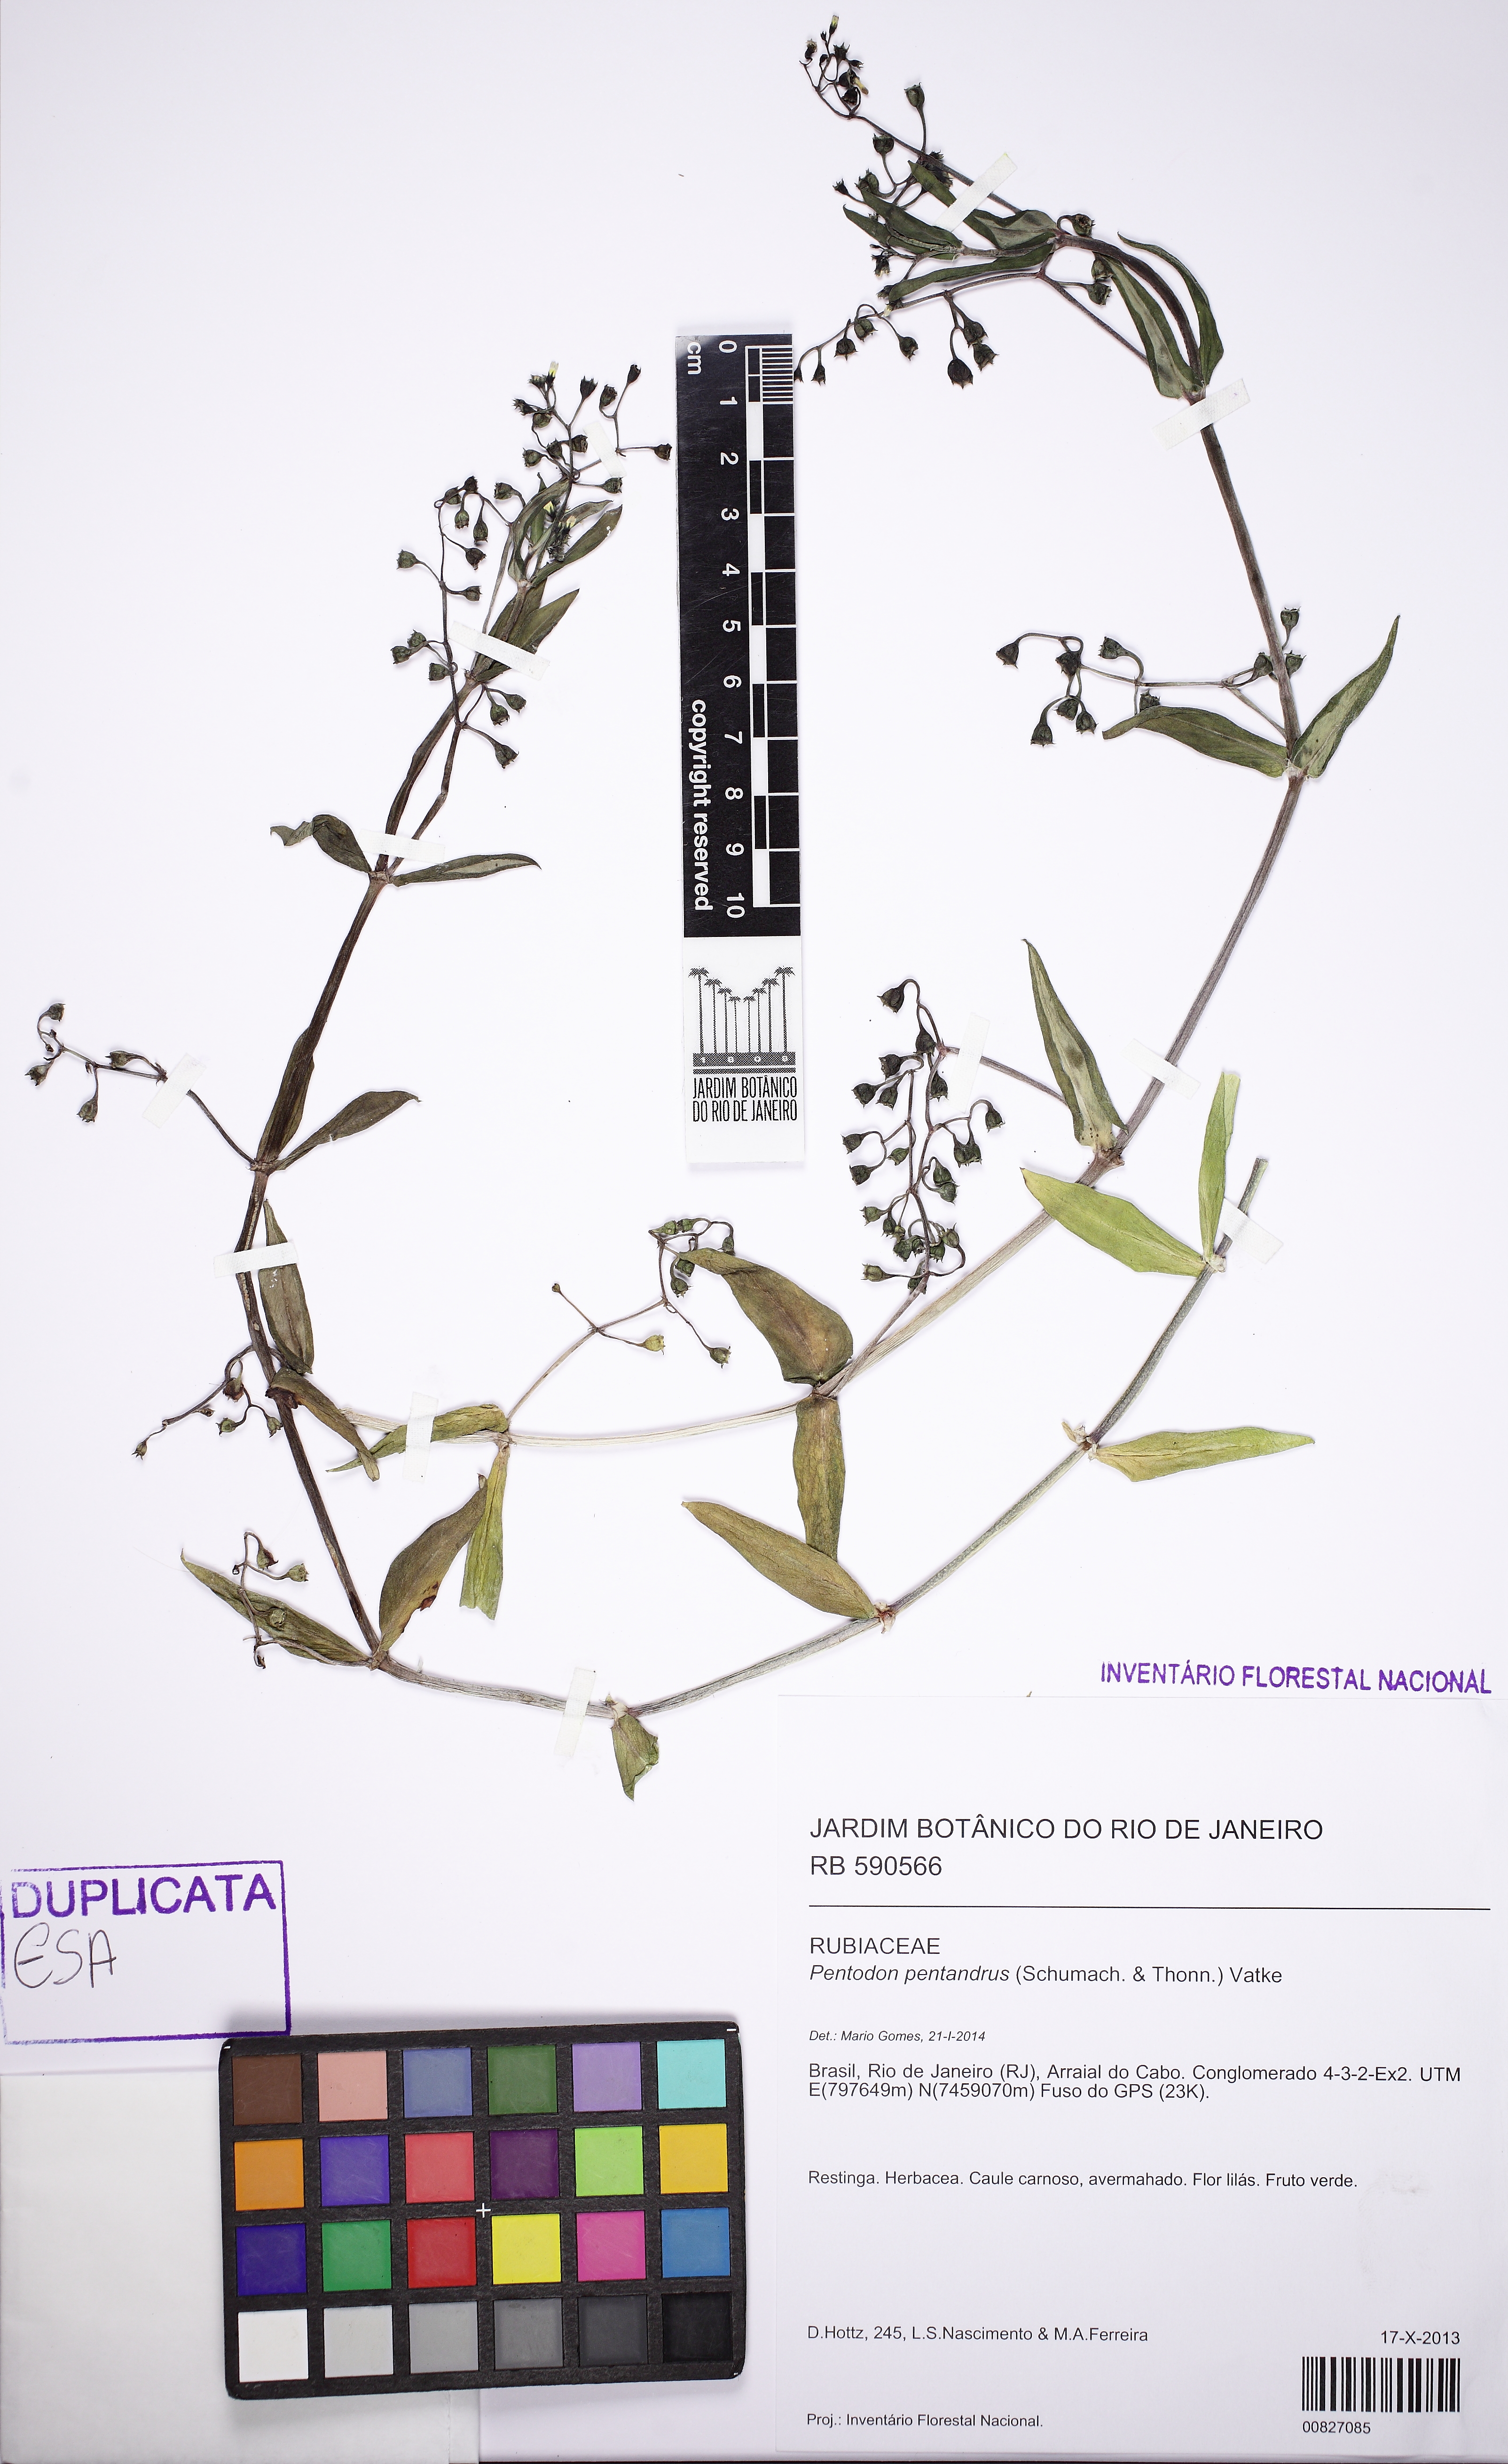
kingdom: Plantae
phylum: Tracheophyta
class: Magnoliopsida
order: Gentianales
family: Rubiaceae
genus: Pentodon
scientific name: Pentodon pentandrus
